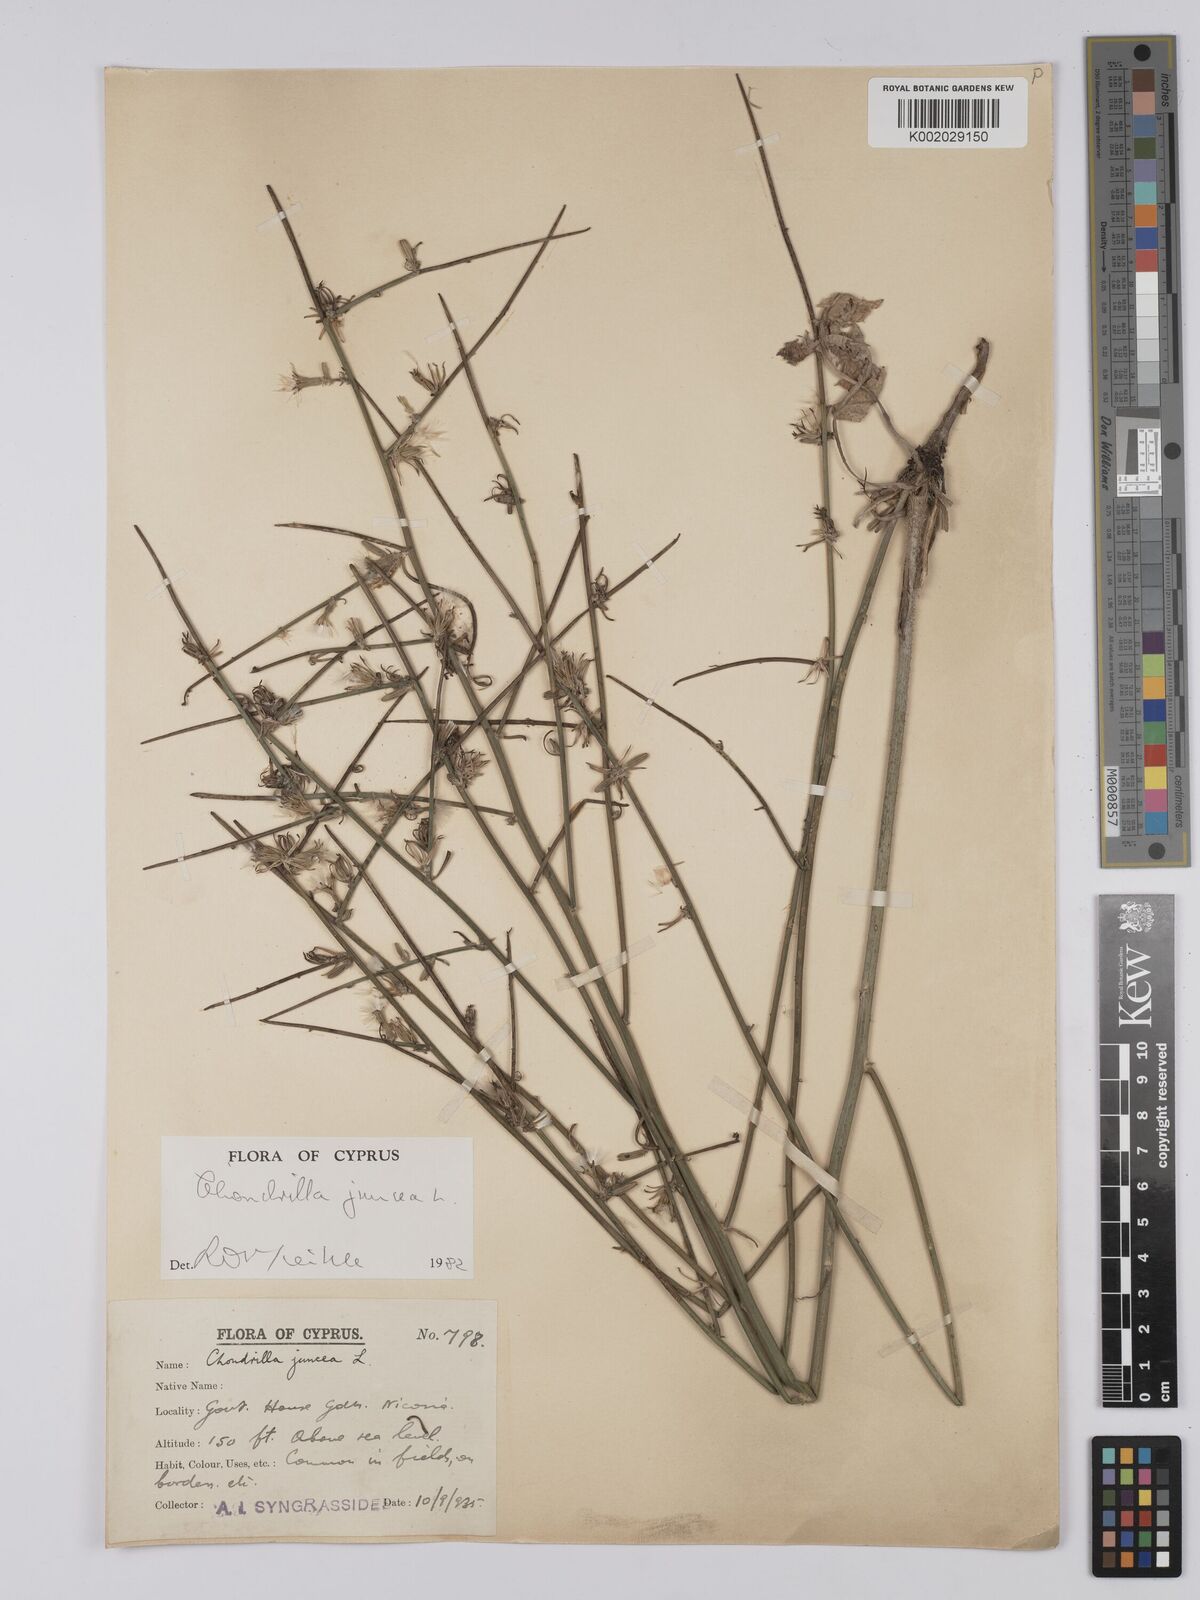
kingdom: Plantae
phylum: Tracheophyta
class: Magnoliopsida
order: Asterales
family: Asteraceae
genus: Chondrilla
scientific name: Chondrilla juncea
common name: Skeleton weed
